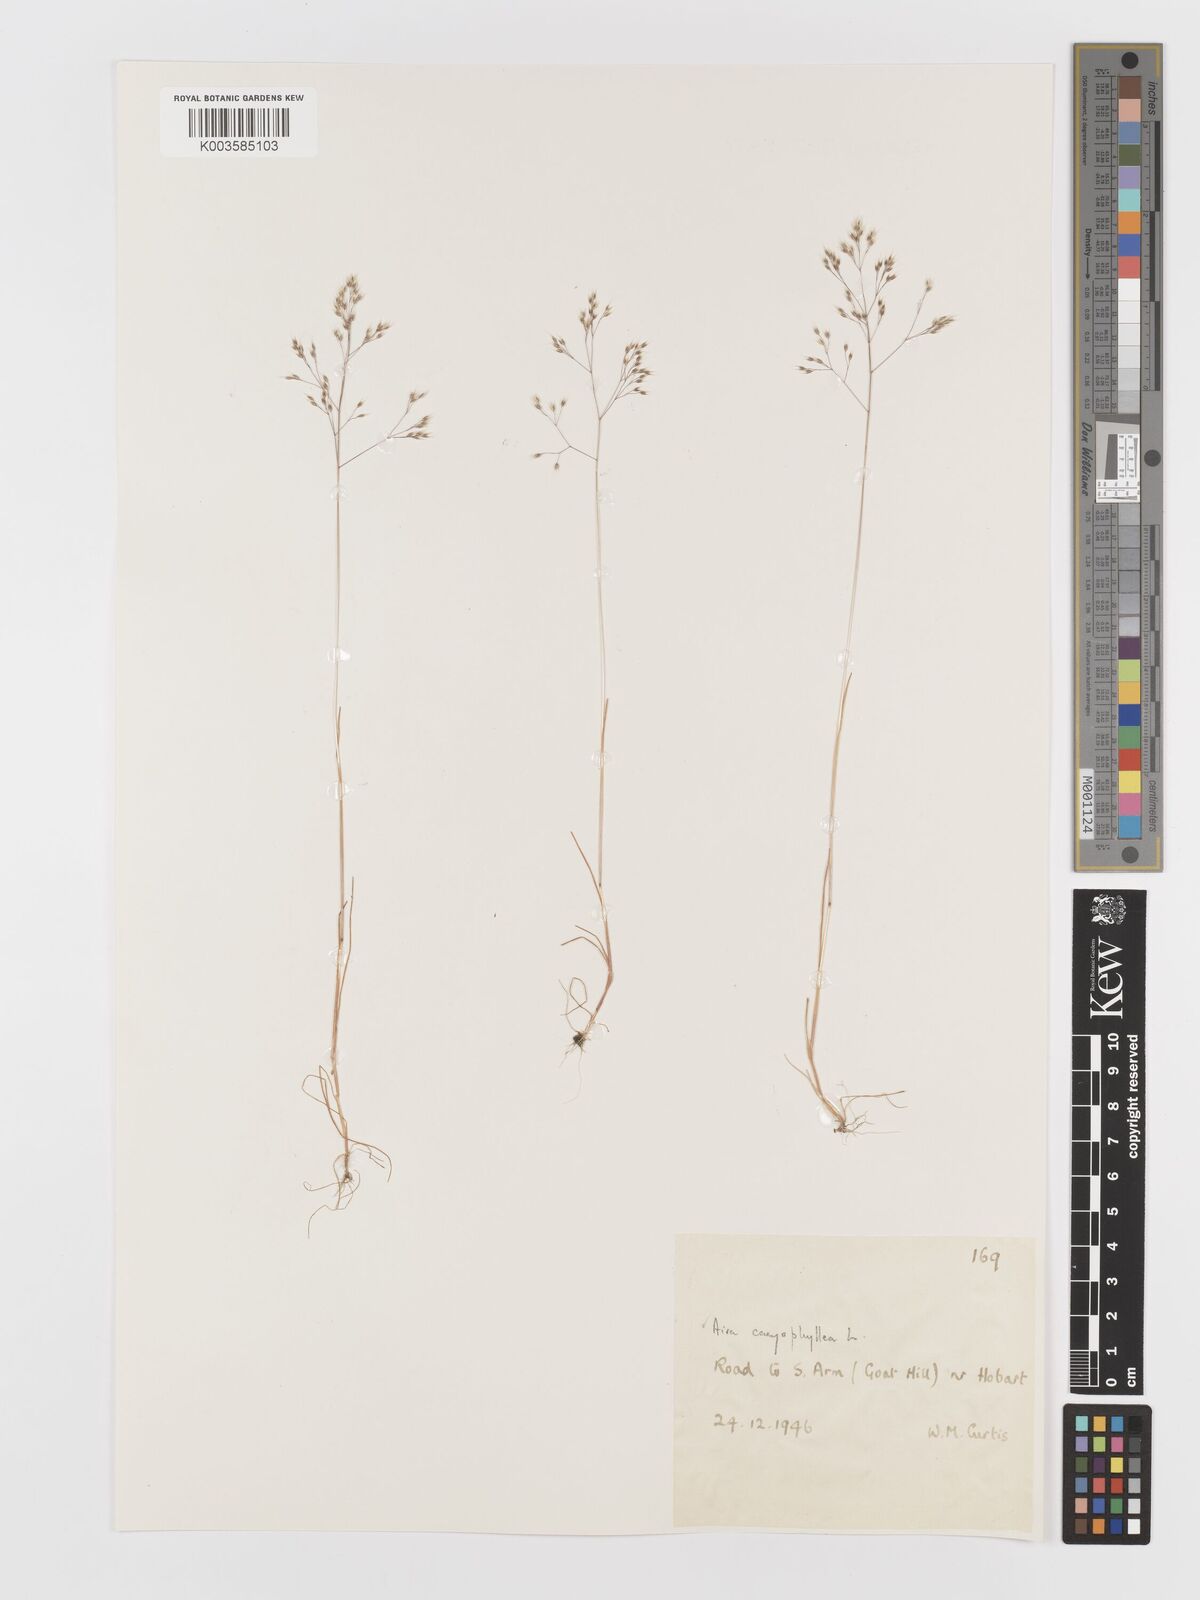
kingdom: Plantae
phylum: Tracheophyta
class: Liliopsida
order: Poales
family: Poaceae
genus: Aira
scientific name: Aira caryophyllea
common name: Silver hairgrass
